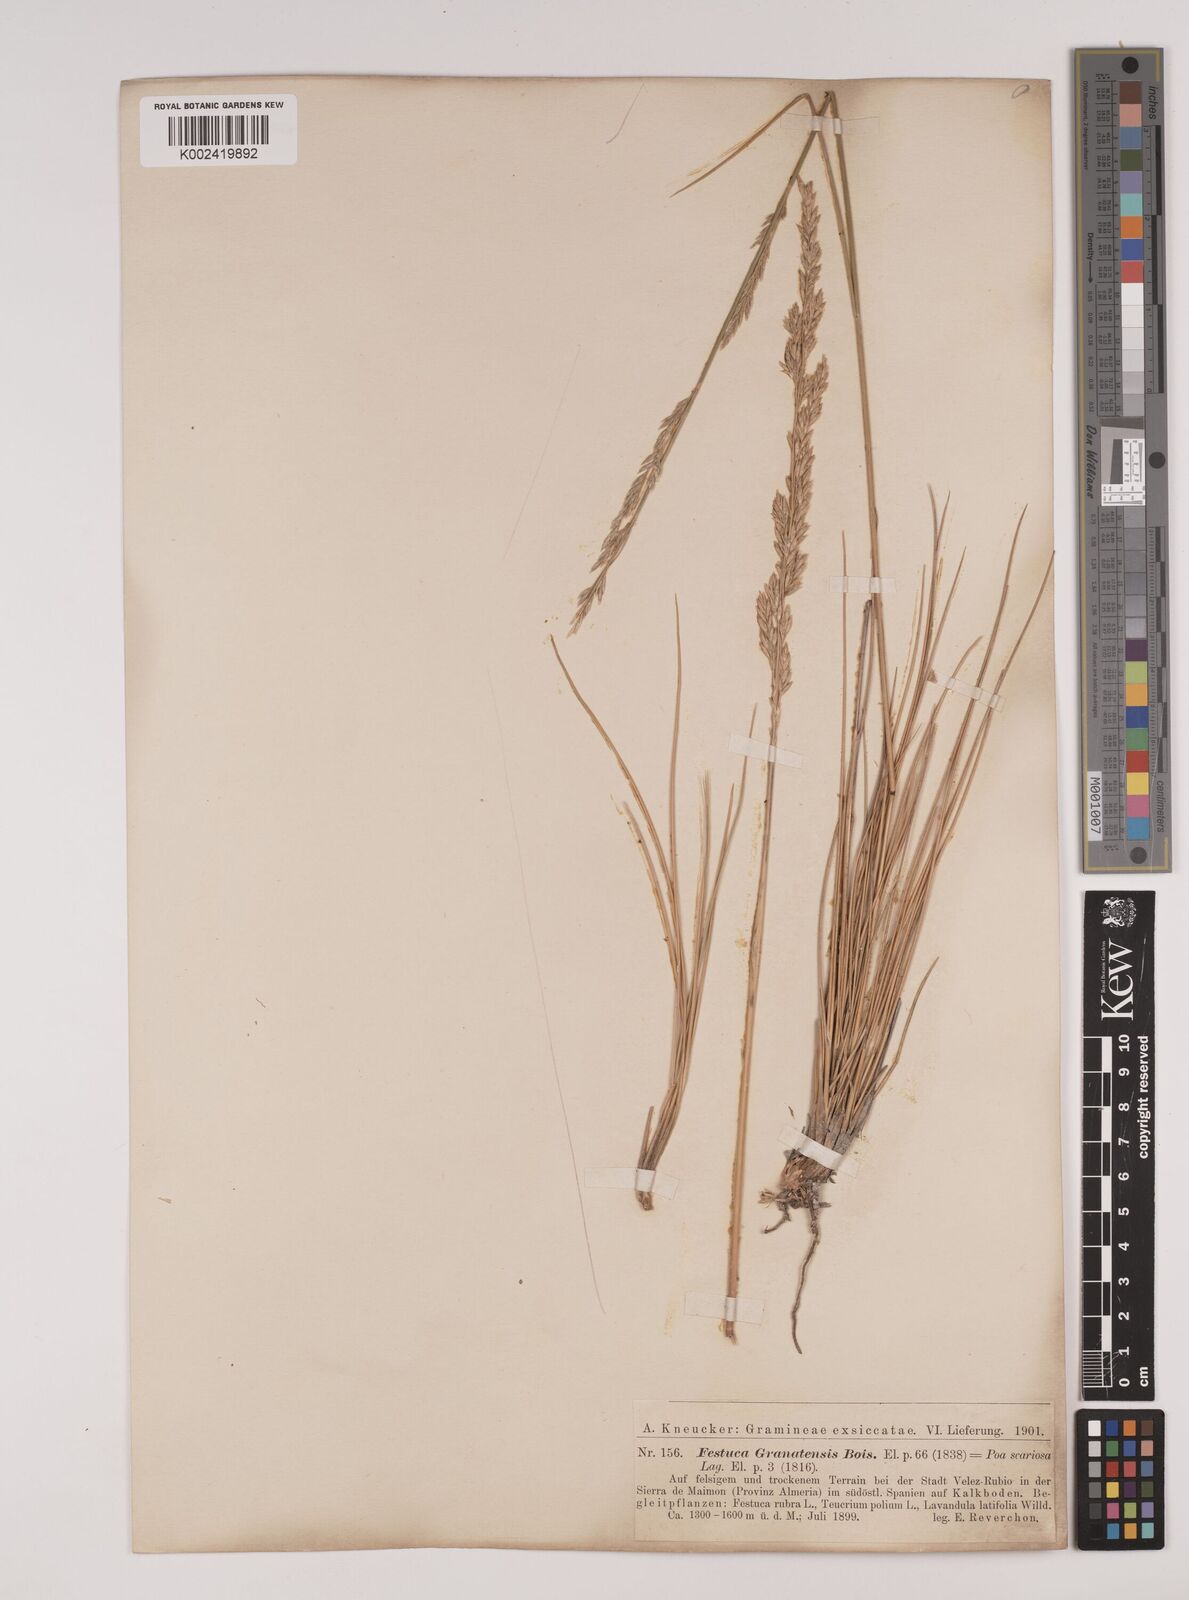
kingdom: Plantae
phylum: Tracheophyta
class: Liliopsida
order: Poales
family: Poaceae
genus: Festuca
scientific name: Festuca scariosa
